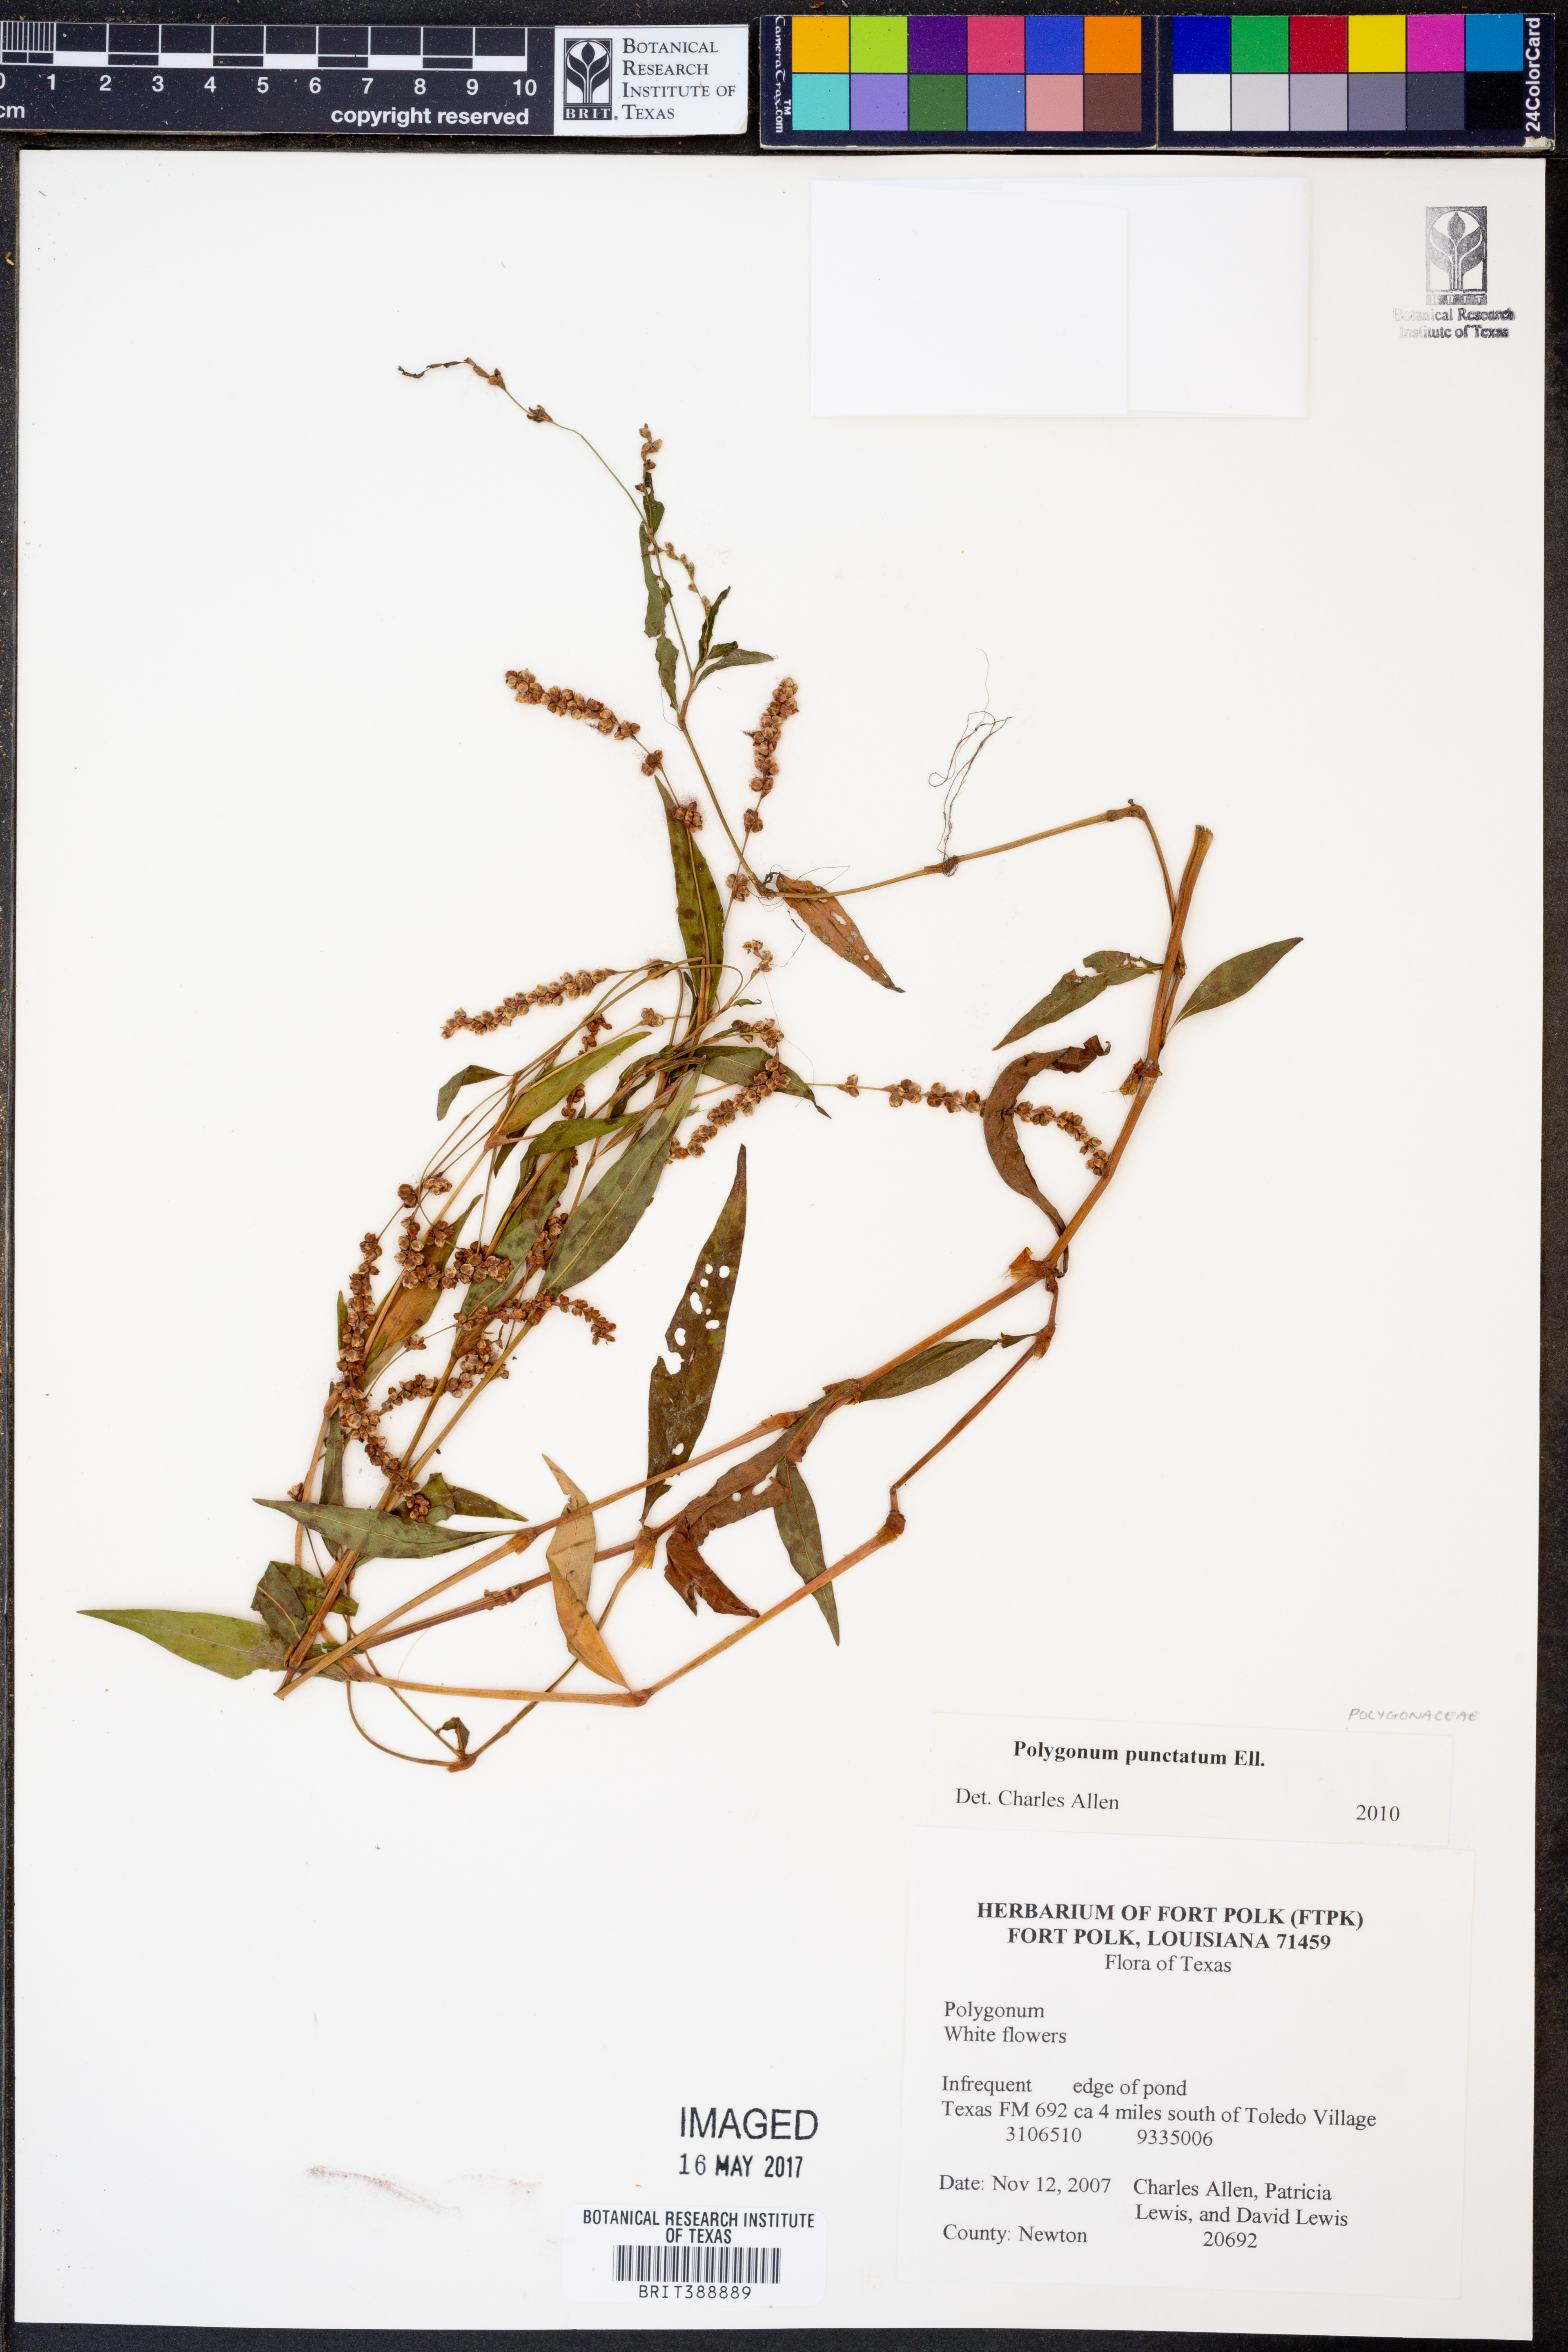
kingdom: Plantae
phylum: Tracheophyta
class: Magnoliopsida
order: Caryophyllales
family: Polygonaceae
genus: Persicaria
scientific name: Persicaria punctata
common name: Dotted smartweed
